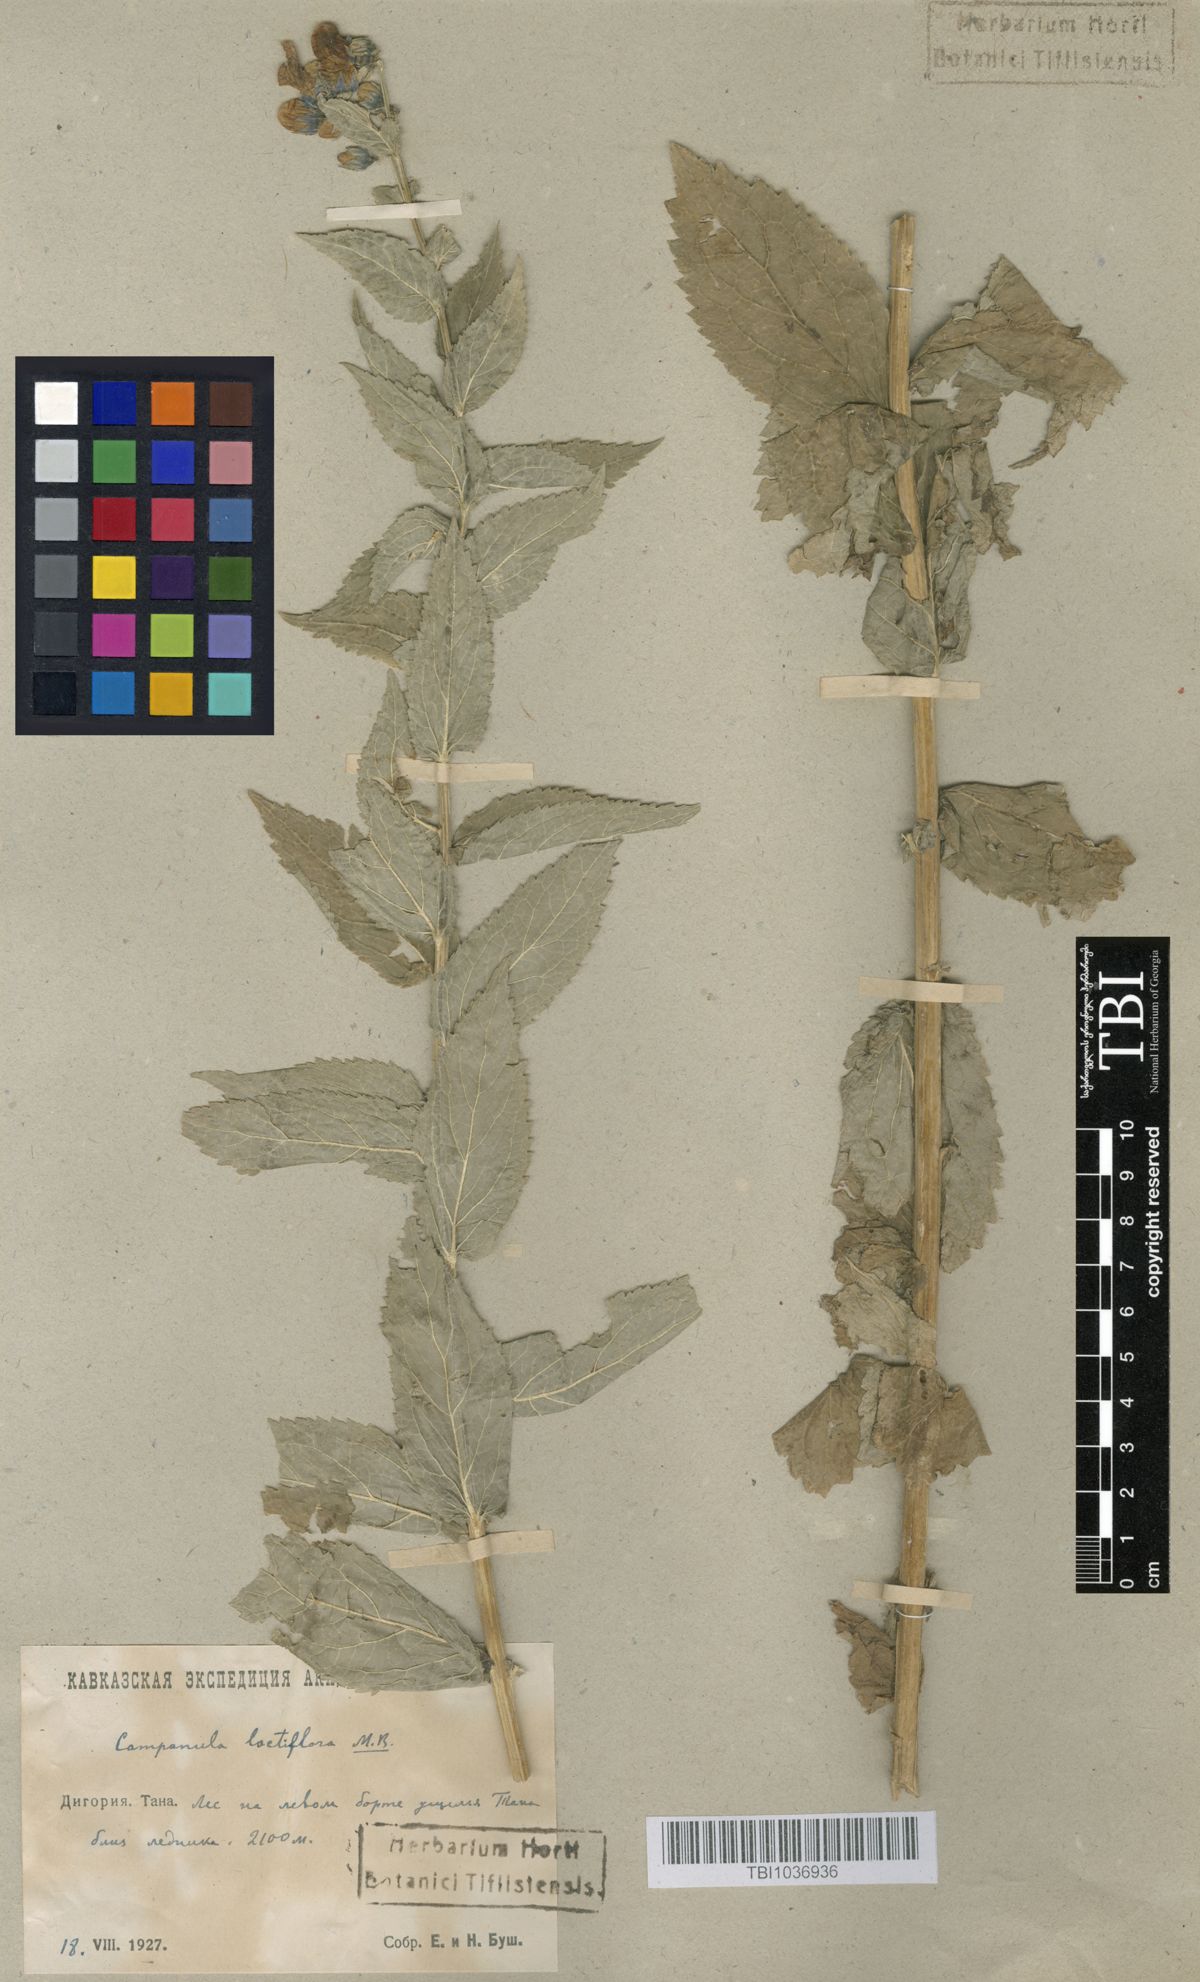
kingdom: Plantae
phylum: Tracheophyta
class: Magnoliopsida
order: Asterales
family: Campanulaceae
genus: Campanula
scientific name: Campanula lactiflora
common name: Milky bellflower
